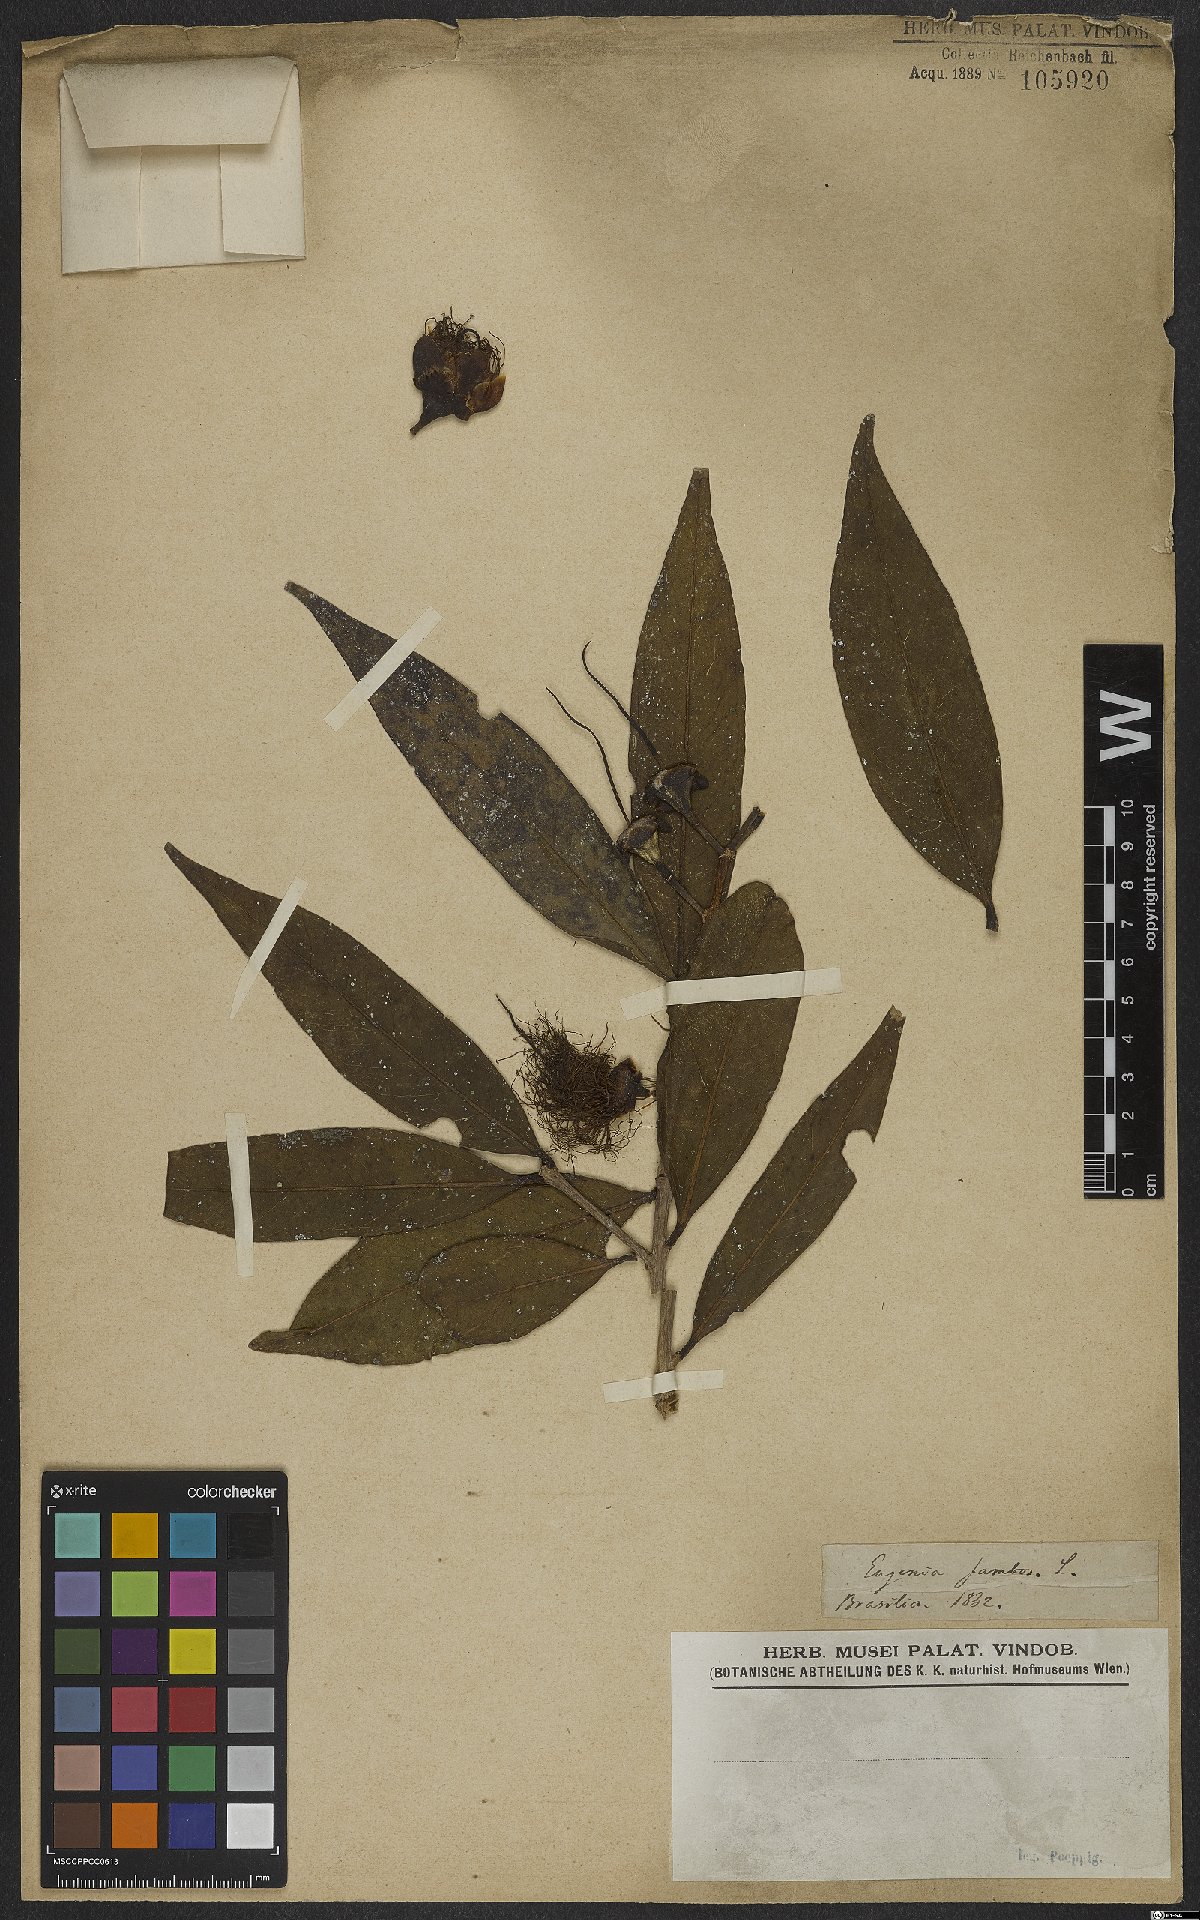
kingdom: Plantae
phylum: Tracheophyta
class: Magnoliopsida
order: Myrtales
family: Myrtaceae
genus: Syzygium
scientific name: Syzygium jambos
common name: Malabar plum
